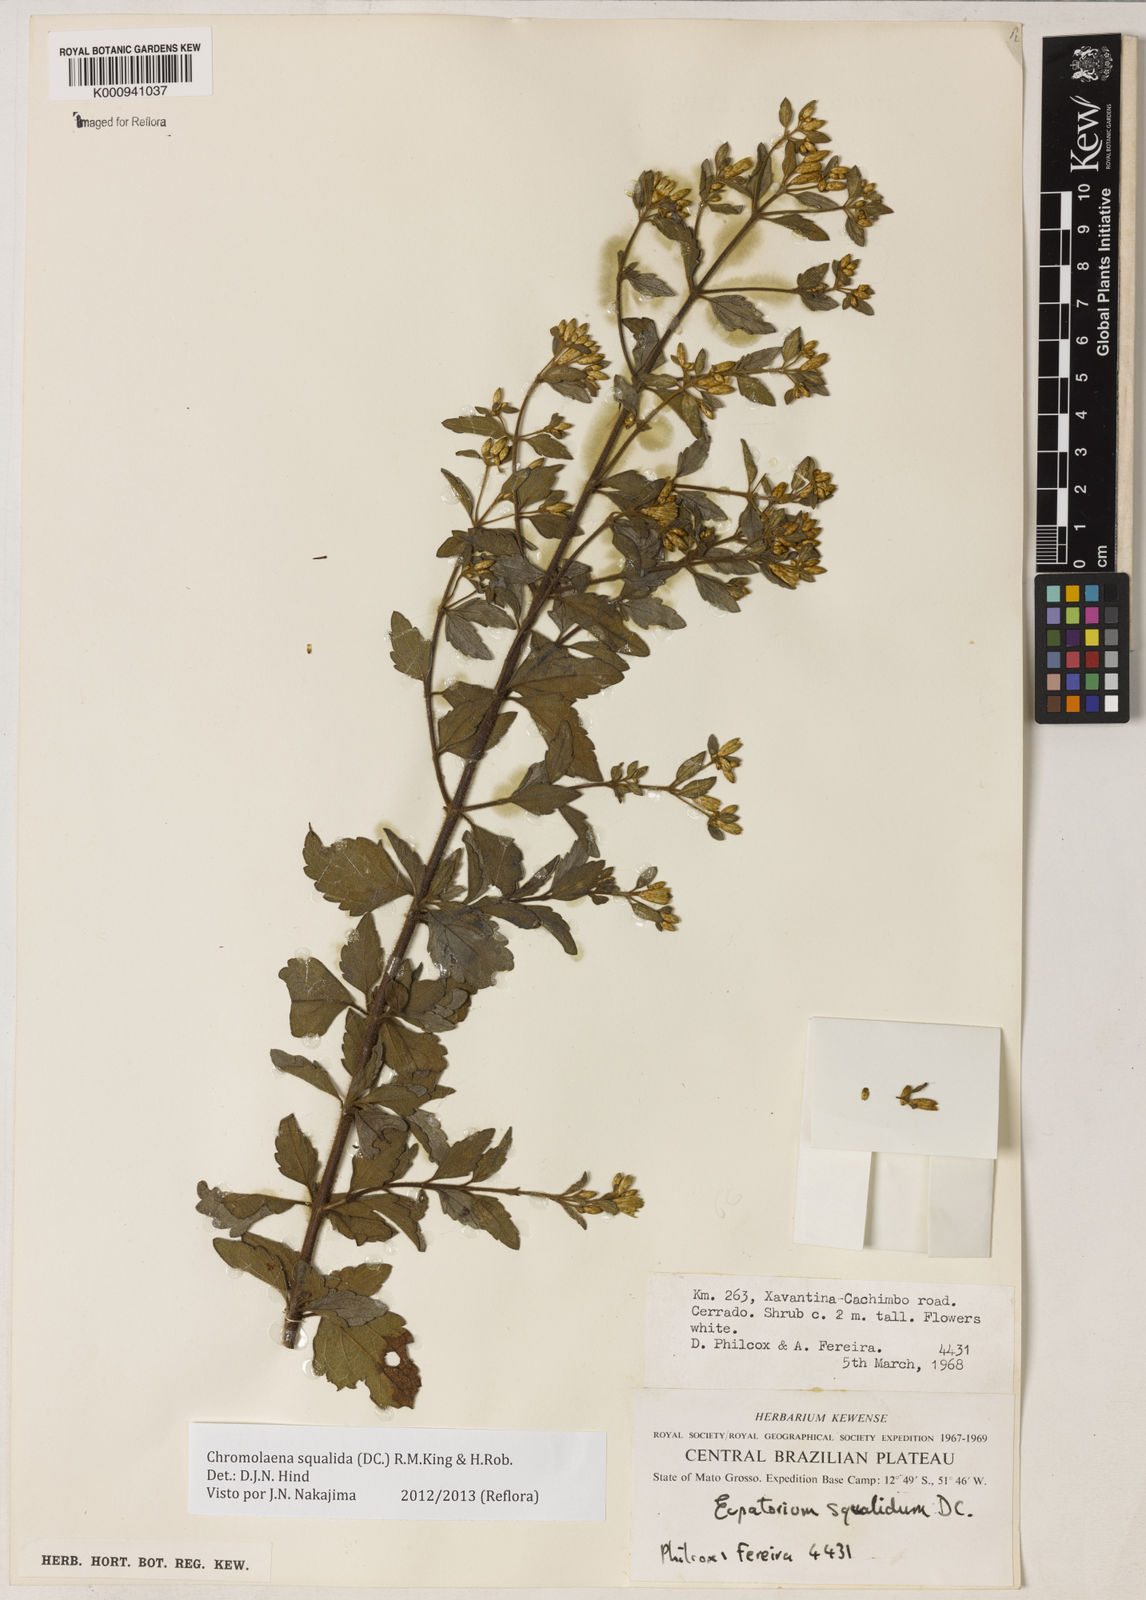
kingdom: Plantae
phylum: Tracheophyta
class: Magnoliopsida
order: Asterales
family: Asteraceae
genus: Chromolaena
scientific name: Chromolaena squalida
